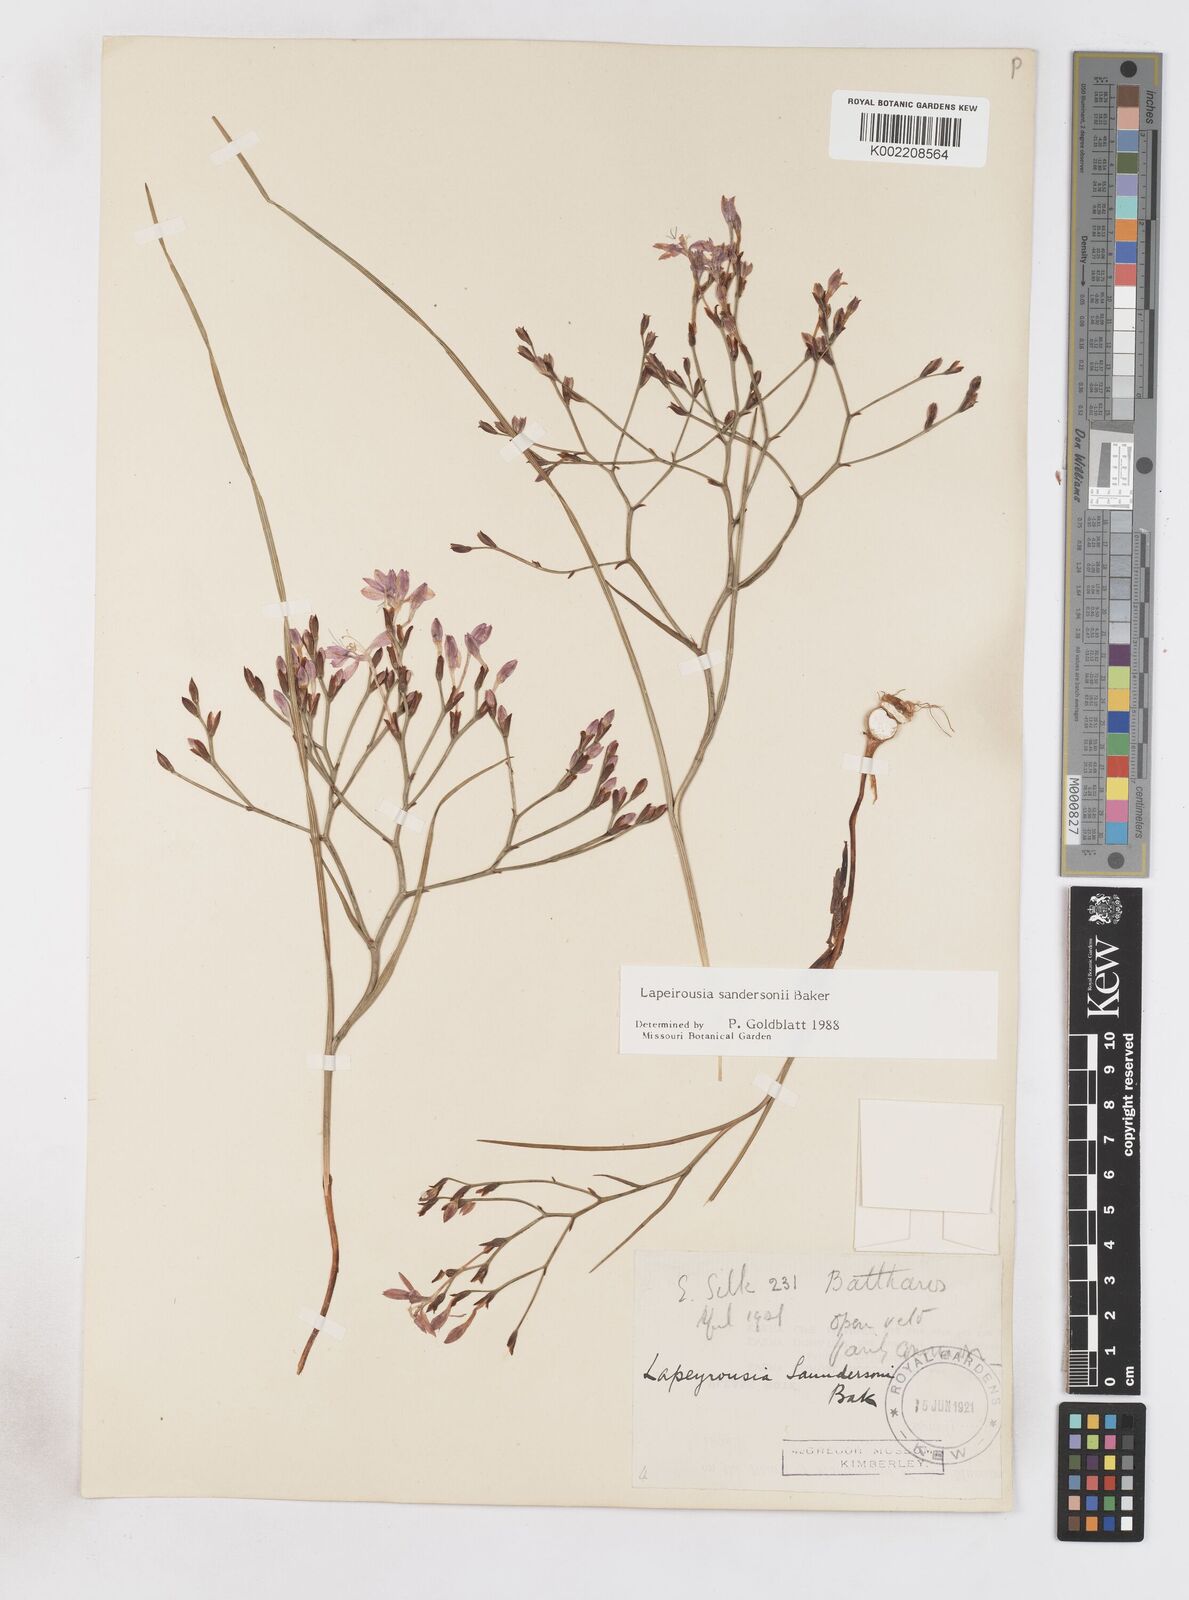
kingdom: Plantae
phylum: Tracheophyta
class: Liliopsida
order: Asparagales
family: Iridaceae
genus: Afrosolen
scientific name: Afrosolen sandersonii
